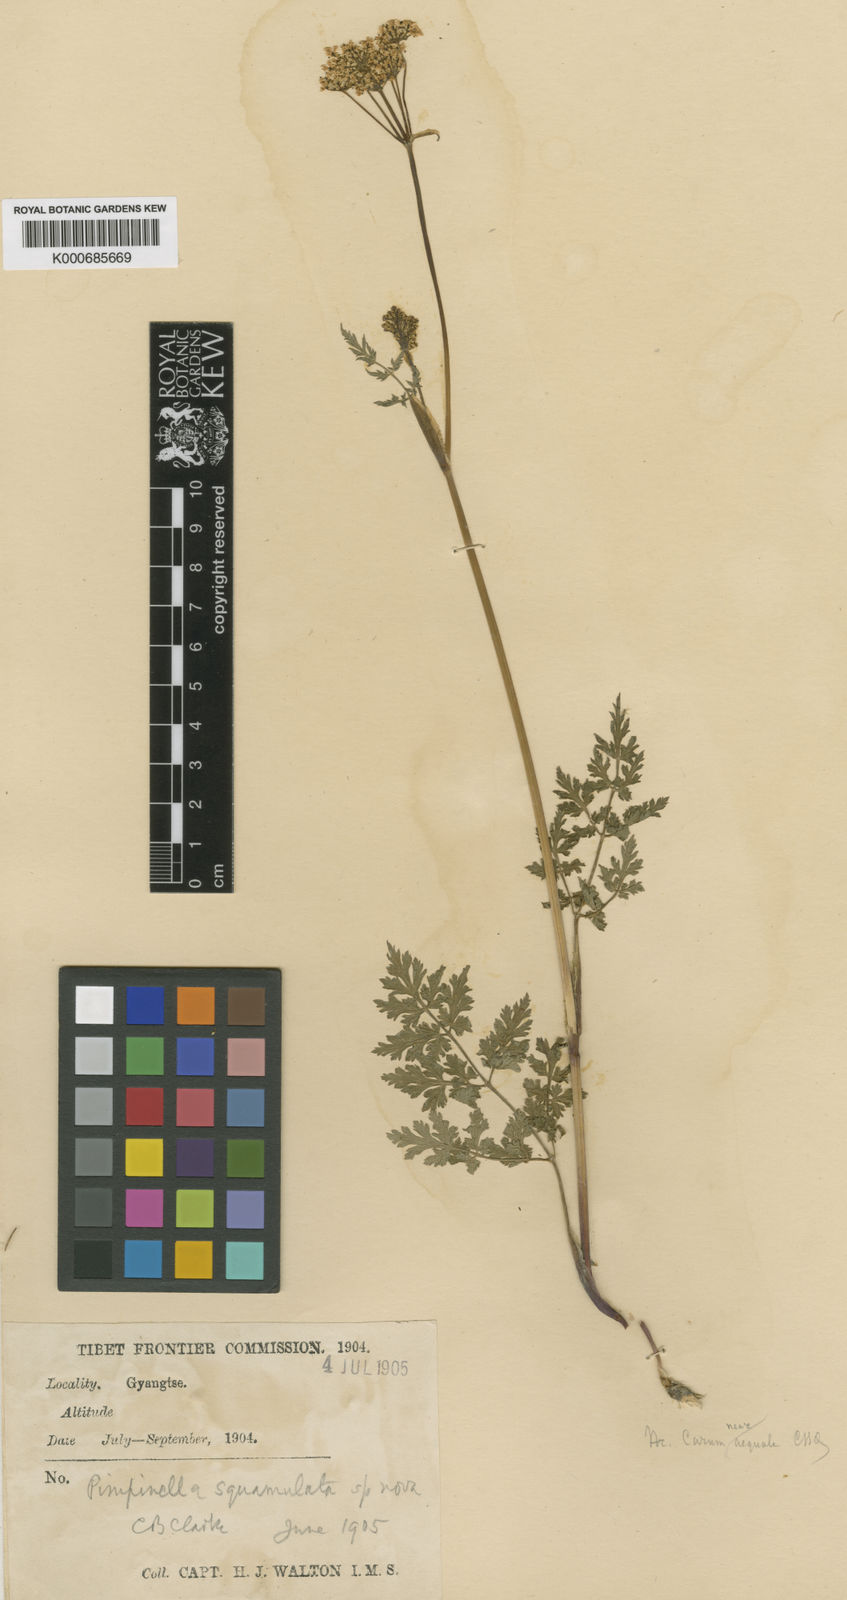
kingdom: Plantae
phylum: Tracheophyta
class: Magnoliopsida
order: Apiales
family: Apiaceae
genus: Carum
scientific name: Carum
